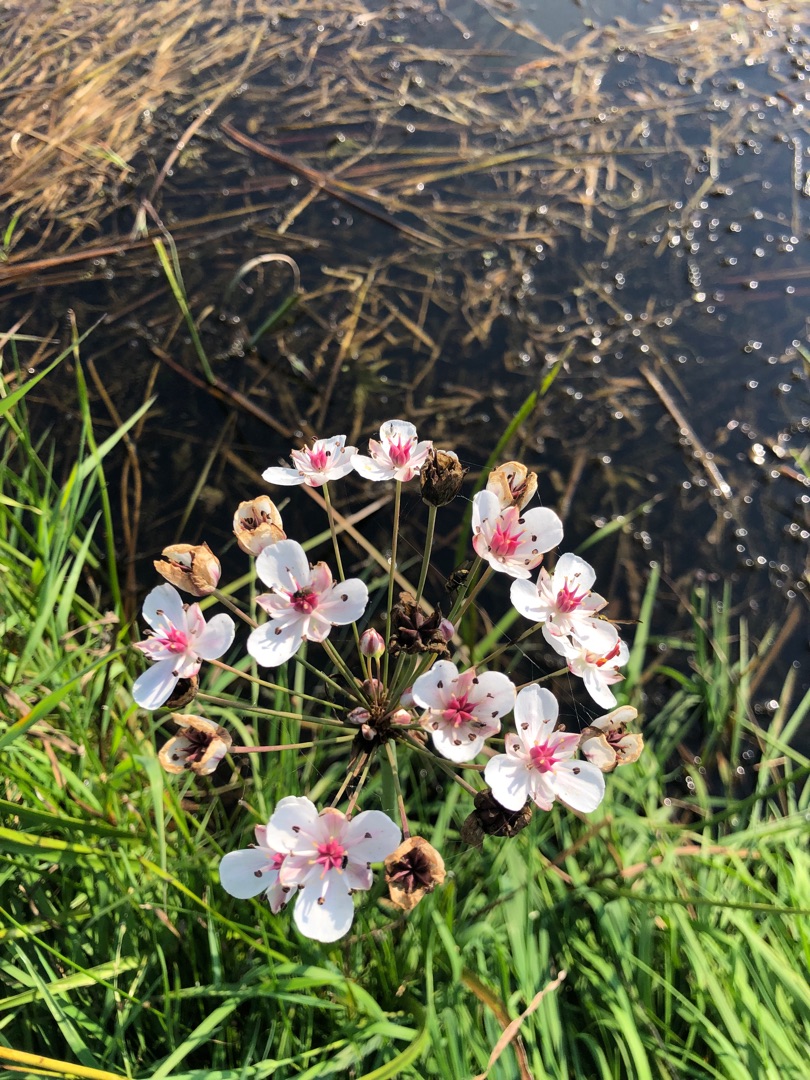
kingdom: Plantae
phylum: Tracheophyta
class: Liliopsida
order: Alismatales
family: Butomaceae
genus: Butomus
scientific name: Butomus umbellatus
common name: Brudelys
